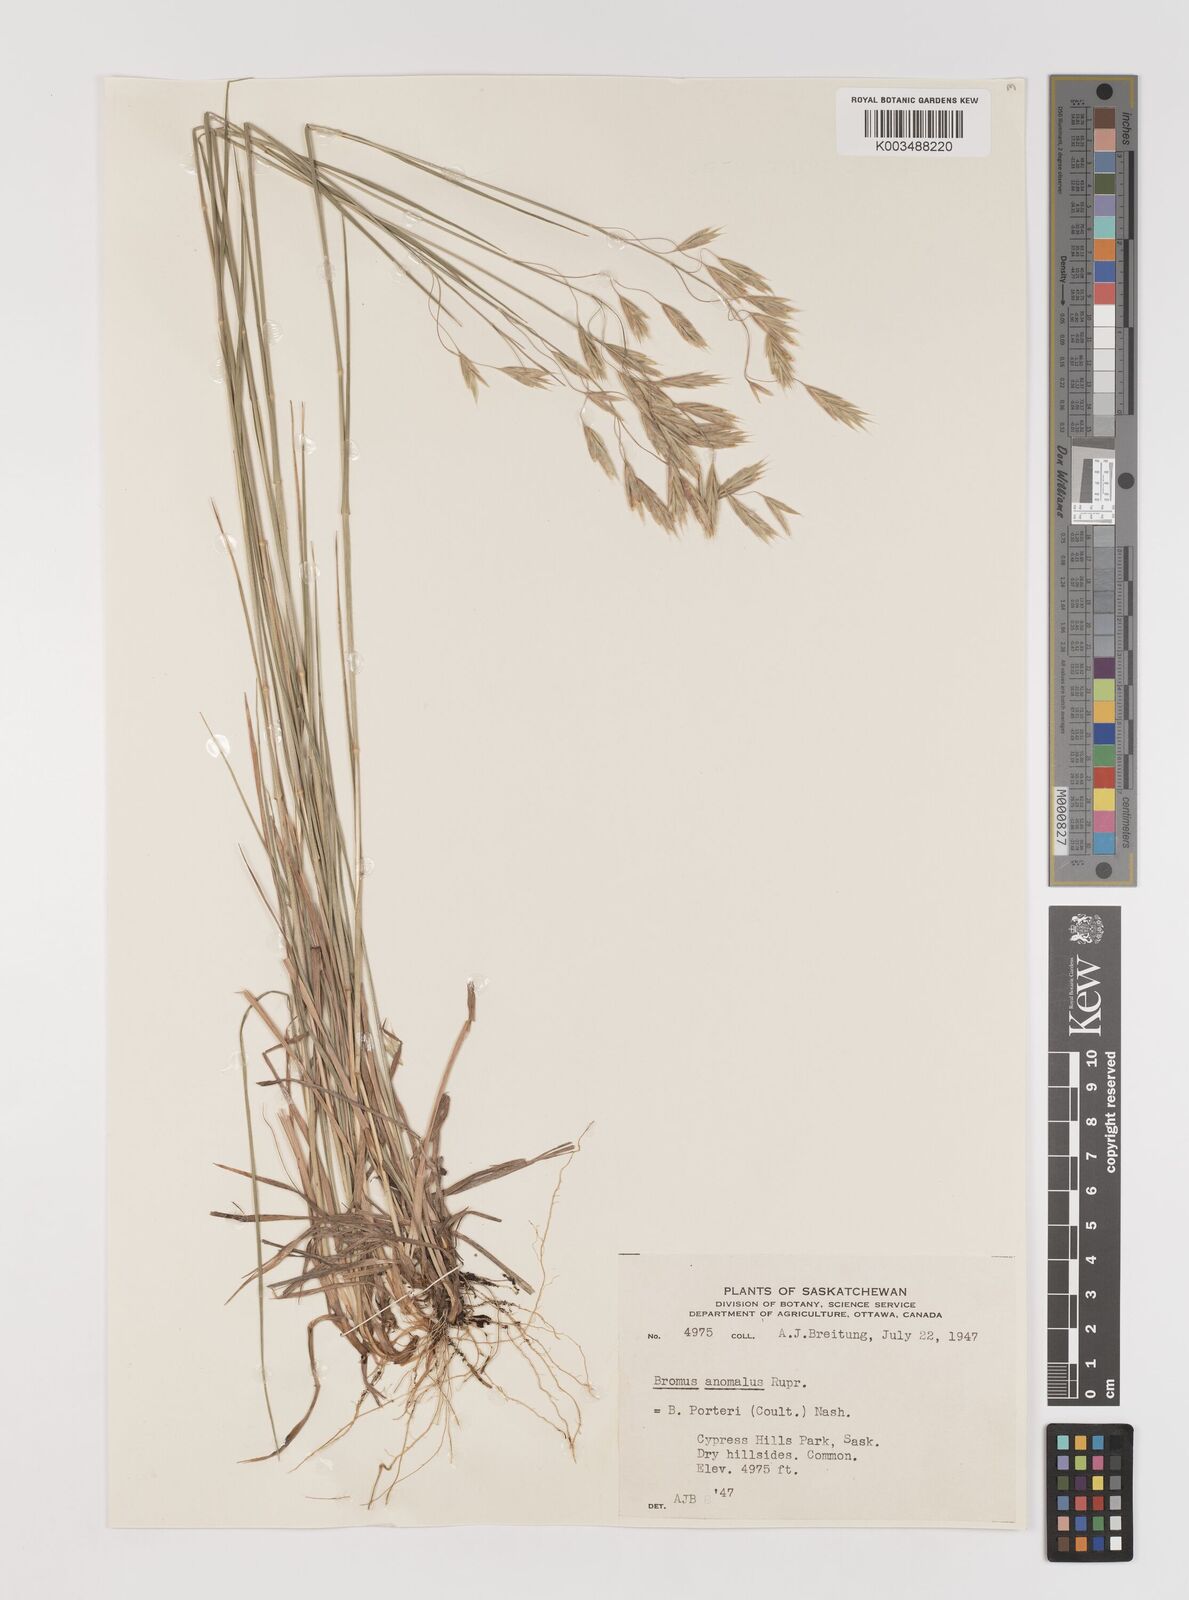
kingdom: Plantae
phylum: Tracheophyta
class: Liliopsida
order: Poales
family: Poaceae
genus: Bromus
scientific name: Bromus anomalus
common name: Nodding brome
